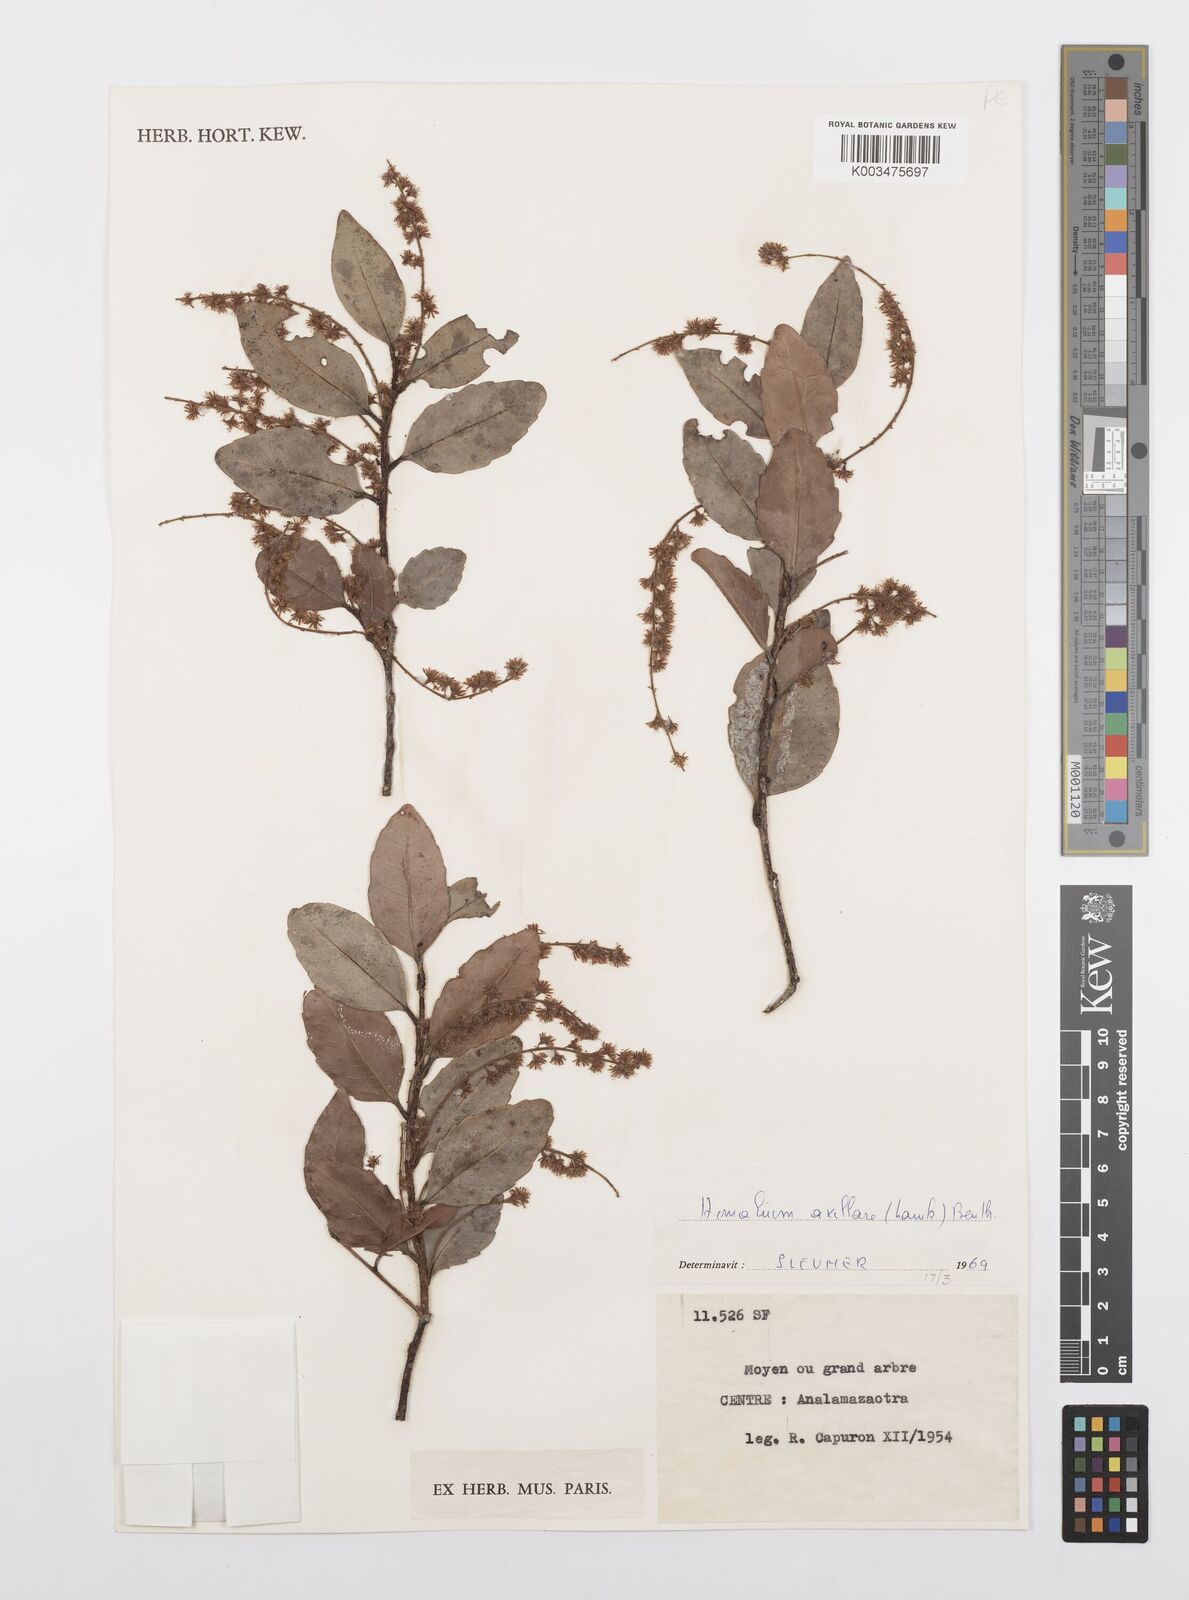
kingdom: Plantae
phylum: Tracheophyta
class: Magnoliopsida
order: Malpighiales
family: Salicaceae
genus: Homalium
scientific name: Homalium axillare
